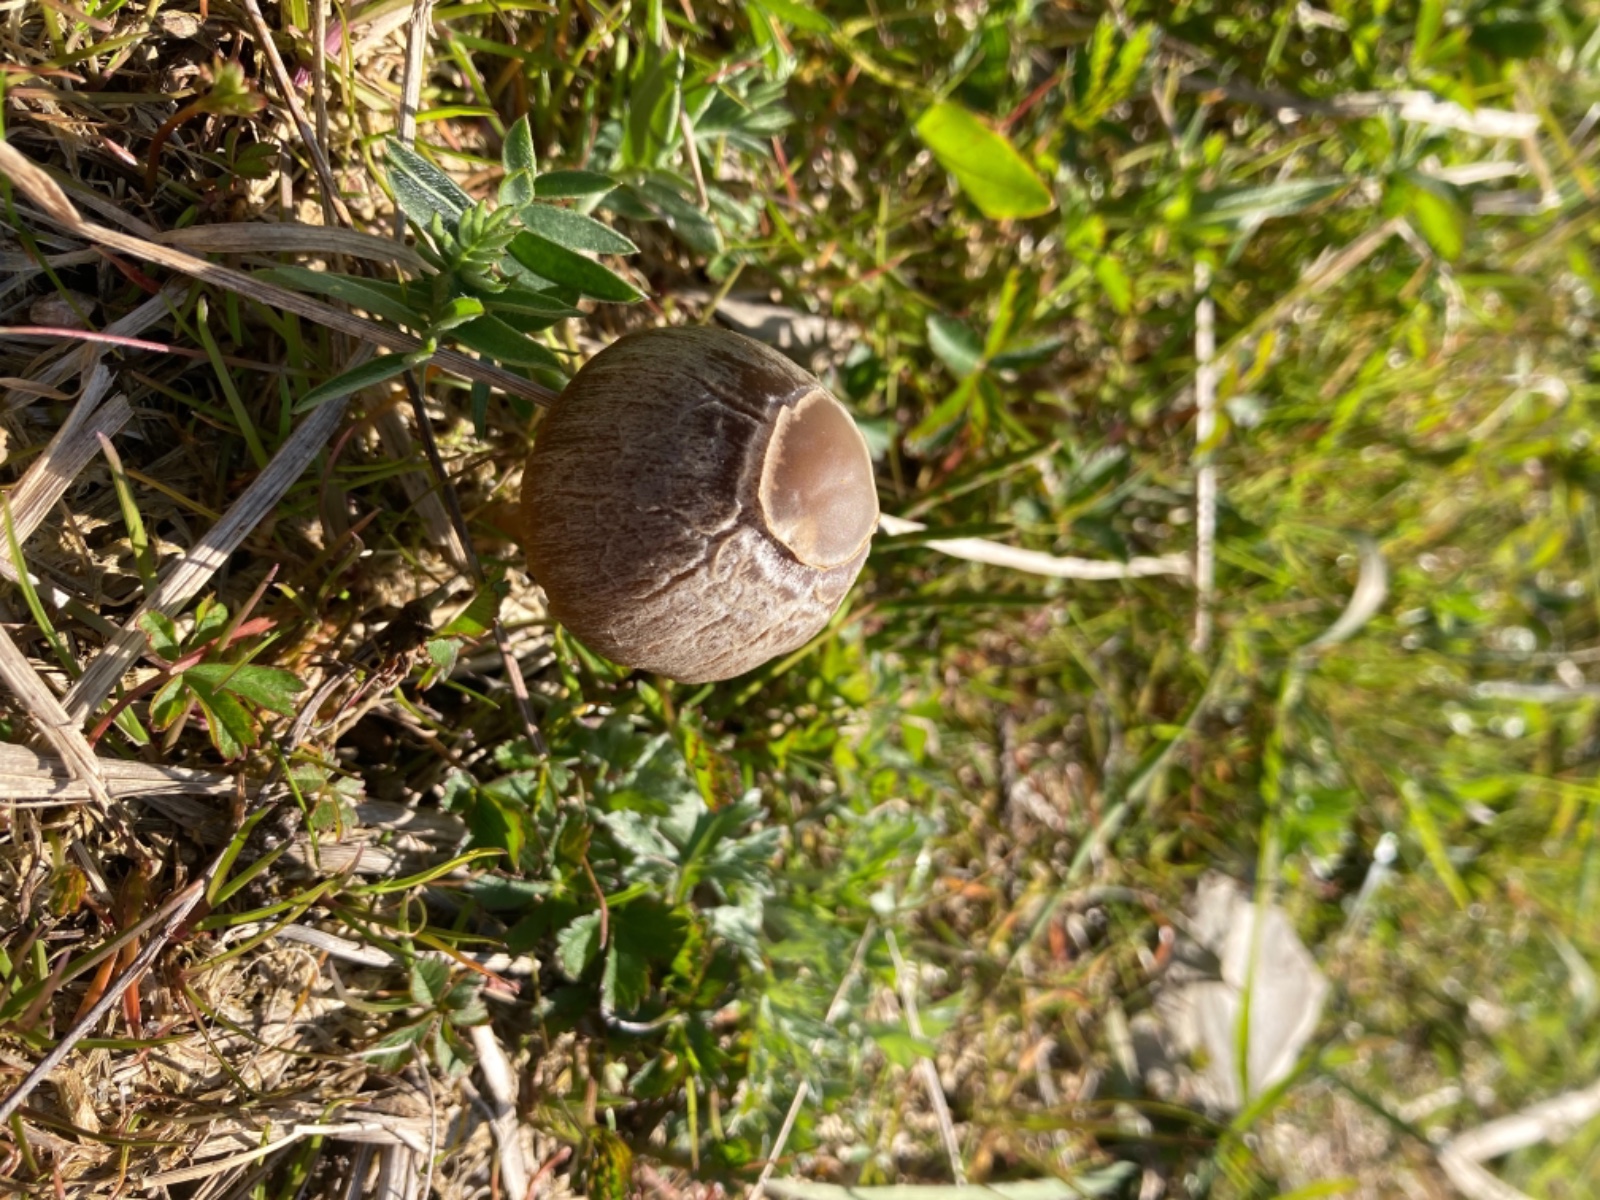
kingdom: Fungi
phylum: Basidiomycota
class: Agaricomycetes
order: Agaricales
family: Bolbitiaceae
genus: Panaeolina
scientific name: Panaeolina foenisecii
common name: høslætsvamp
